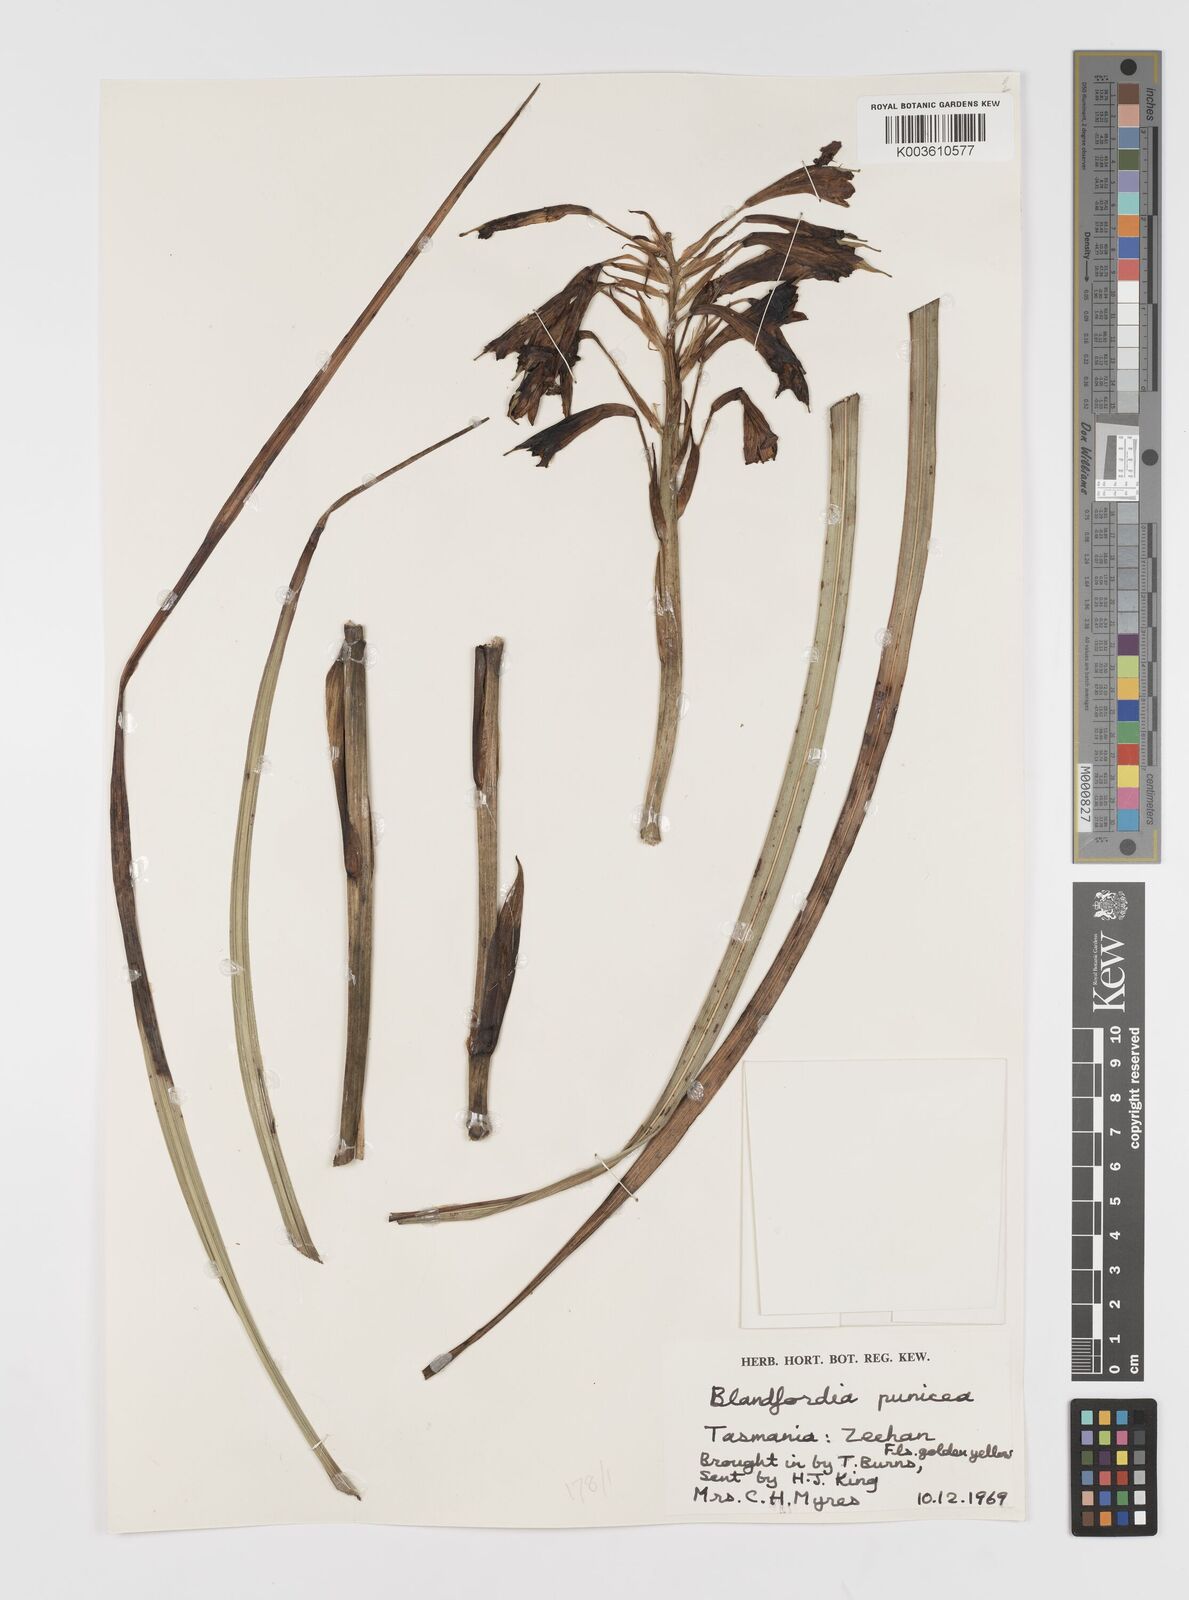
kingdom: Plantae
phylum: Tracheophyta
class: Liliopsida
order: Asparagales
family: Blandfordiaceae
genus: Blandfordia
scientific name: Blandfordia punicea
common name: Tasmanian christmas-bell
